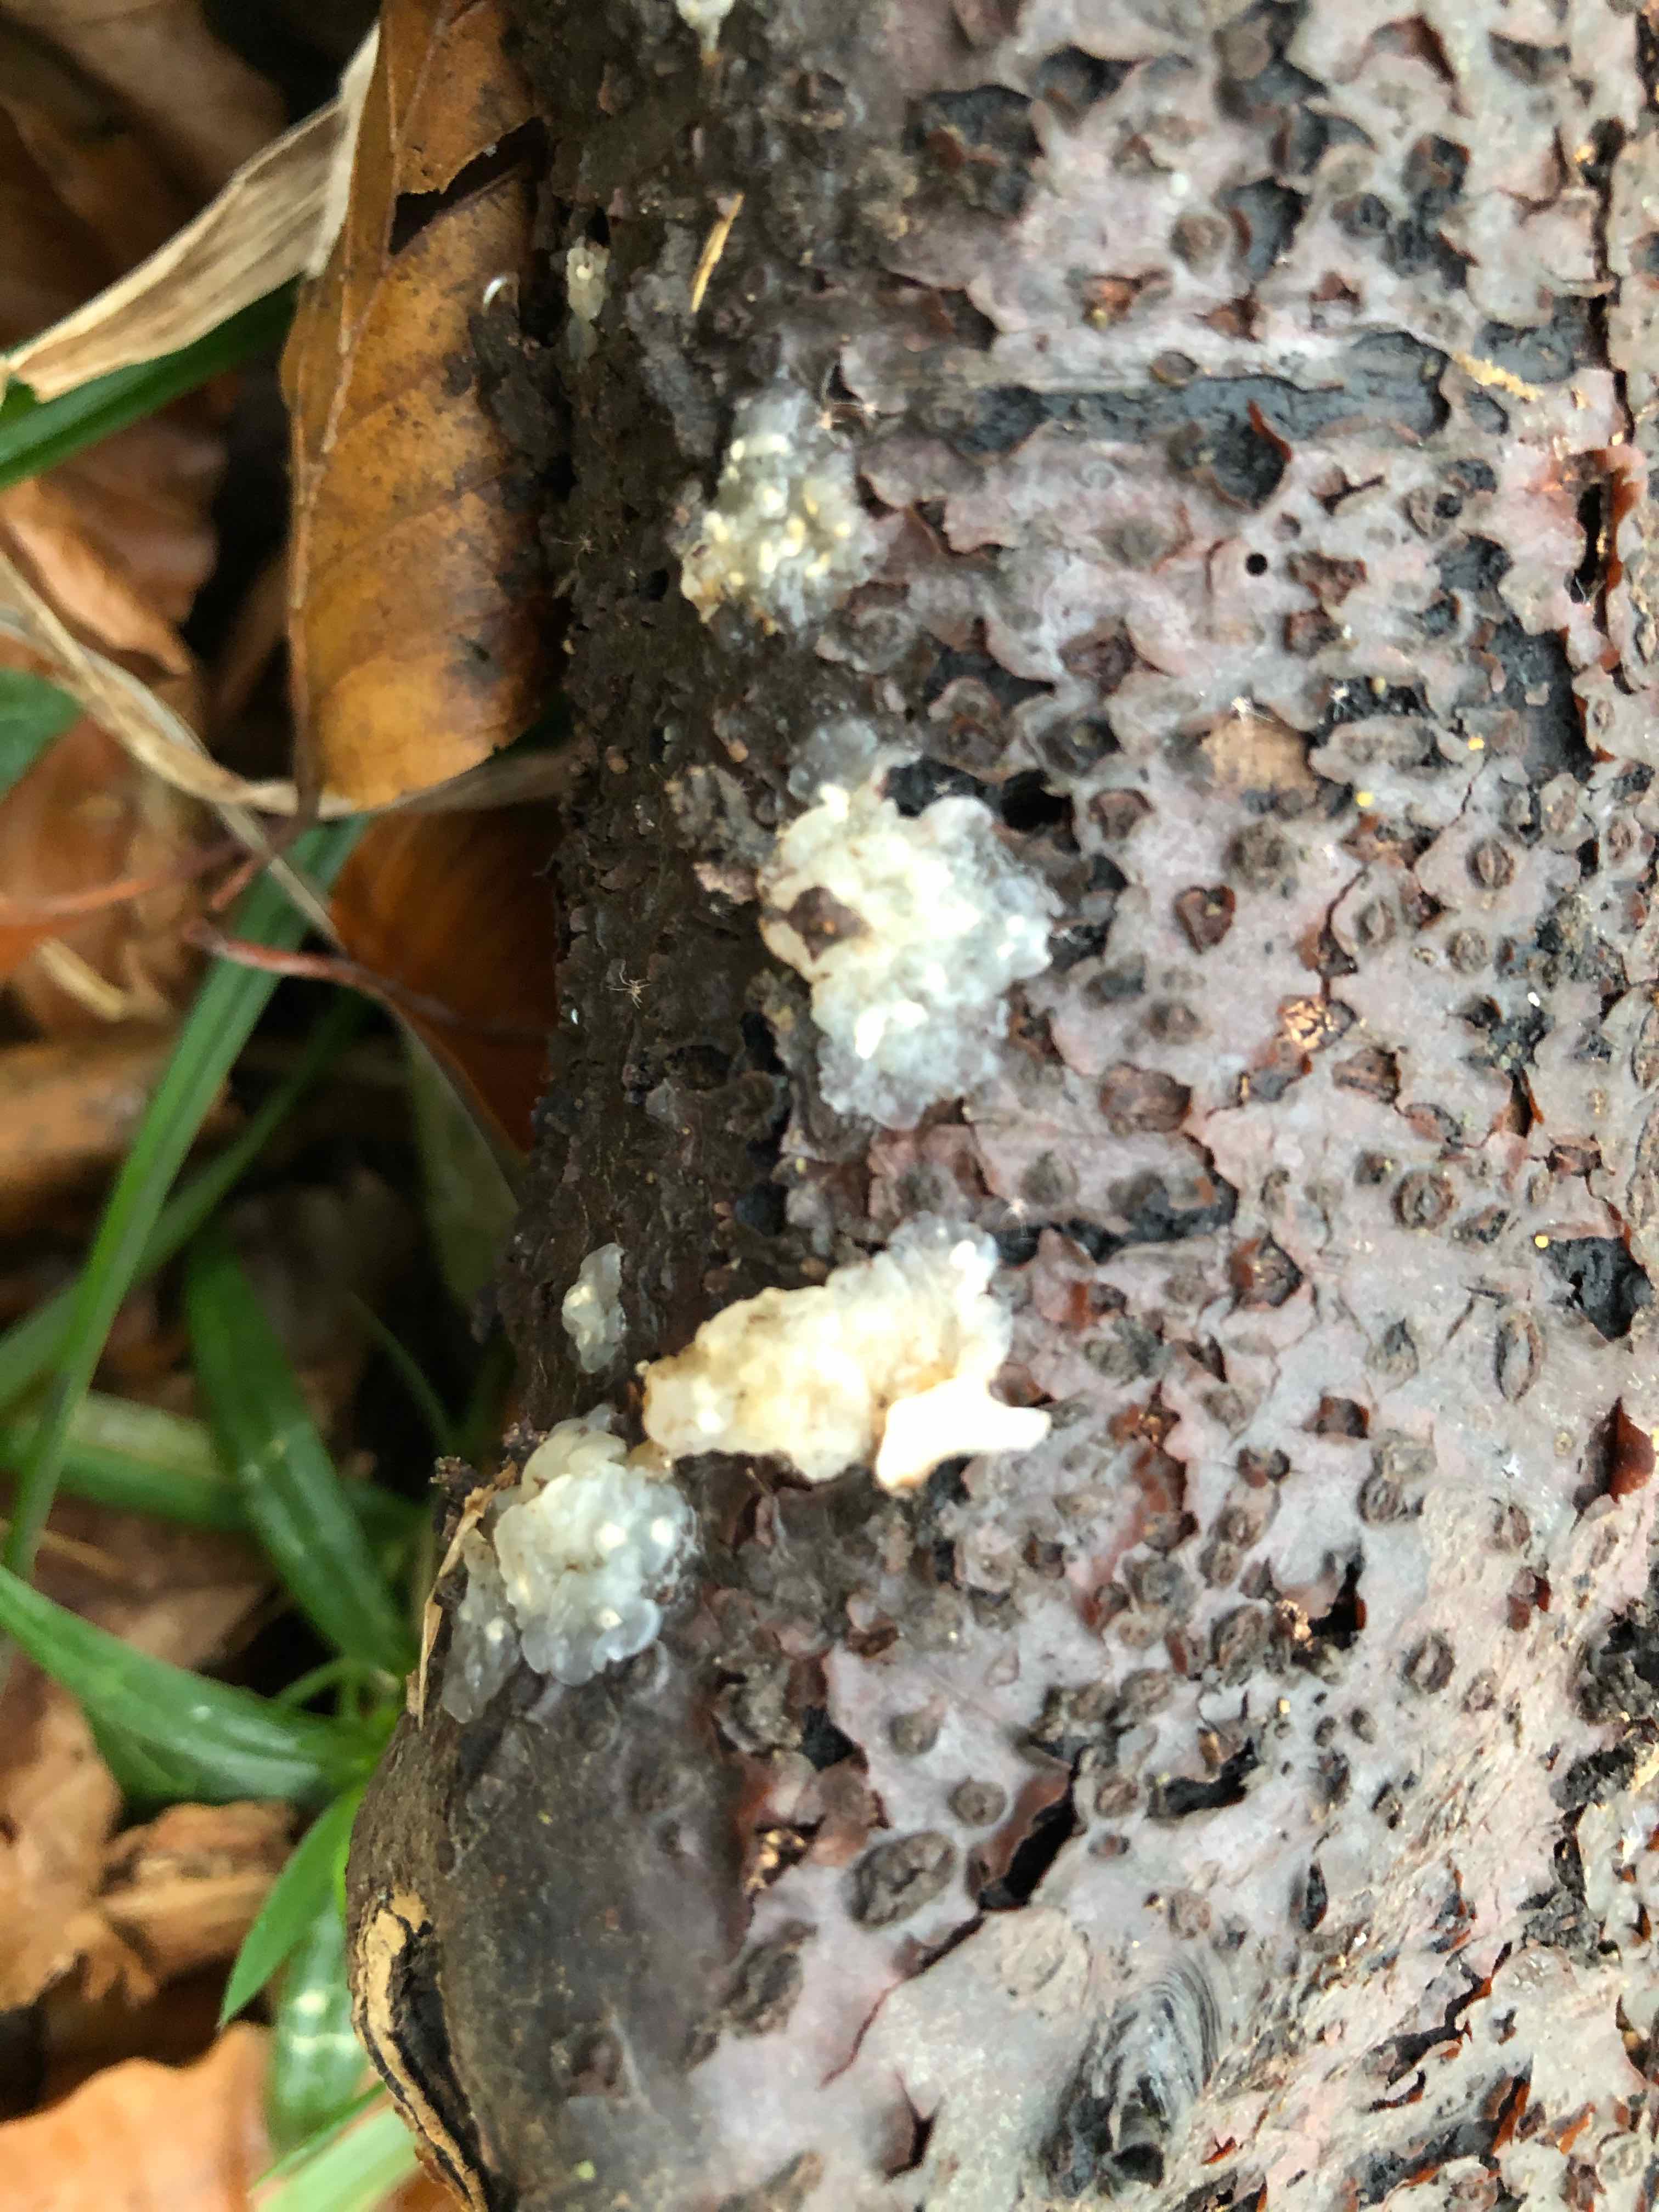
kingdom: Fungi
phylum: Basidiomycota
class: Agaricomycetes
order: Auriculariales
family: Hyaloriaceae
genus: Myxarium
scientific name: Myxarium nucleatum
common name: klar bævretop
